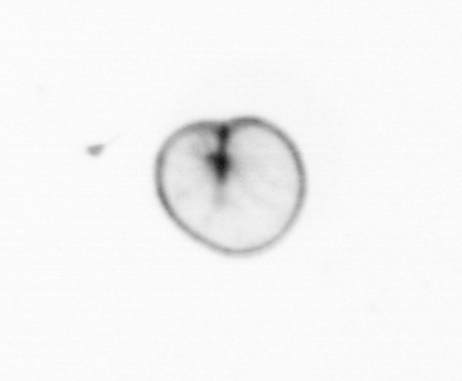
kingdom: Chromista
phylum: Myzozoa
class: Dinophyceae
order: Noctilucales
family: Noctilucaceae
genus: Noctiluca
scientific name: Noctiluca scintillans
